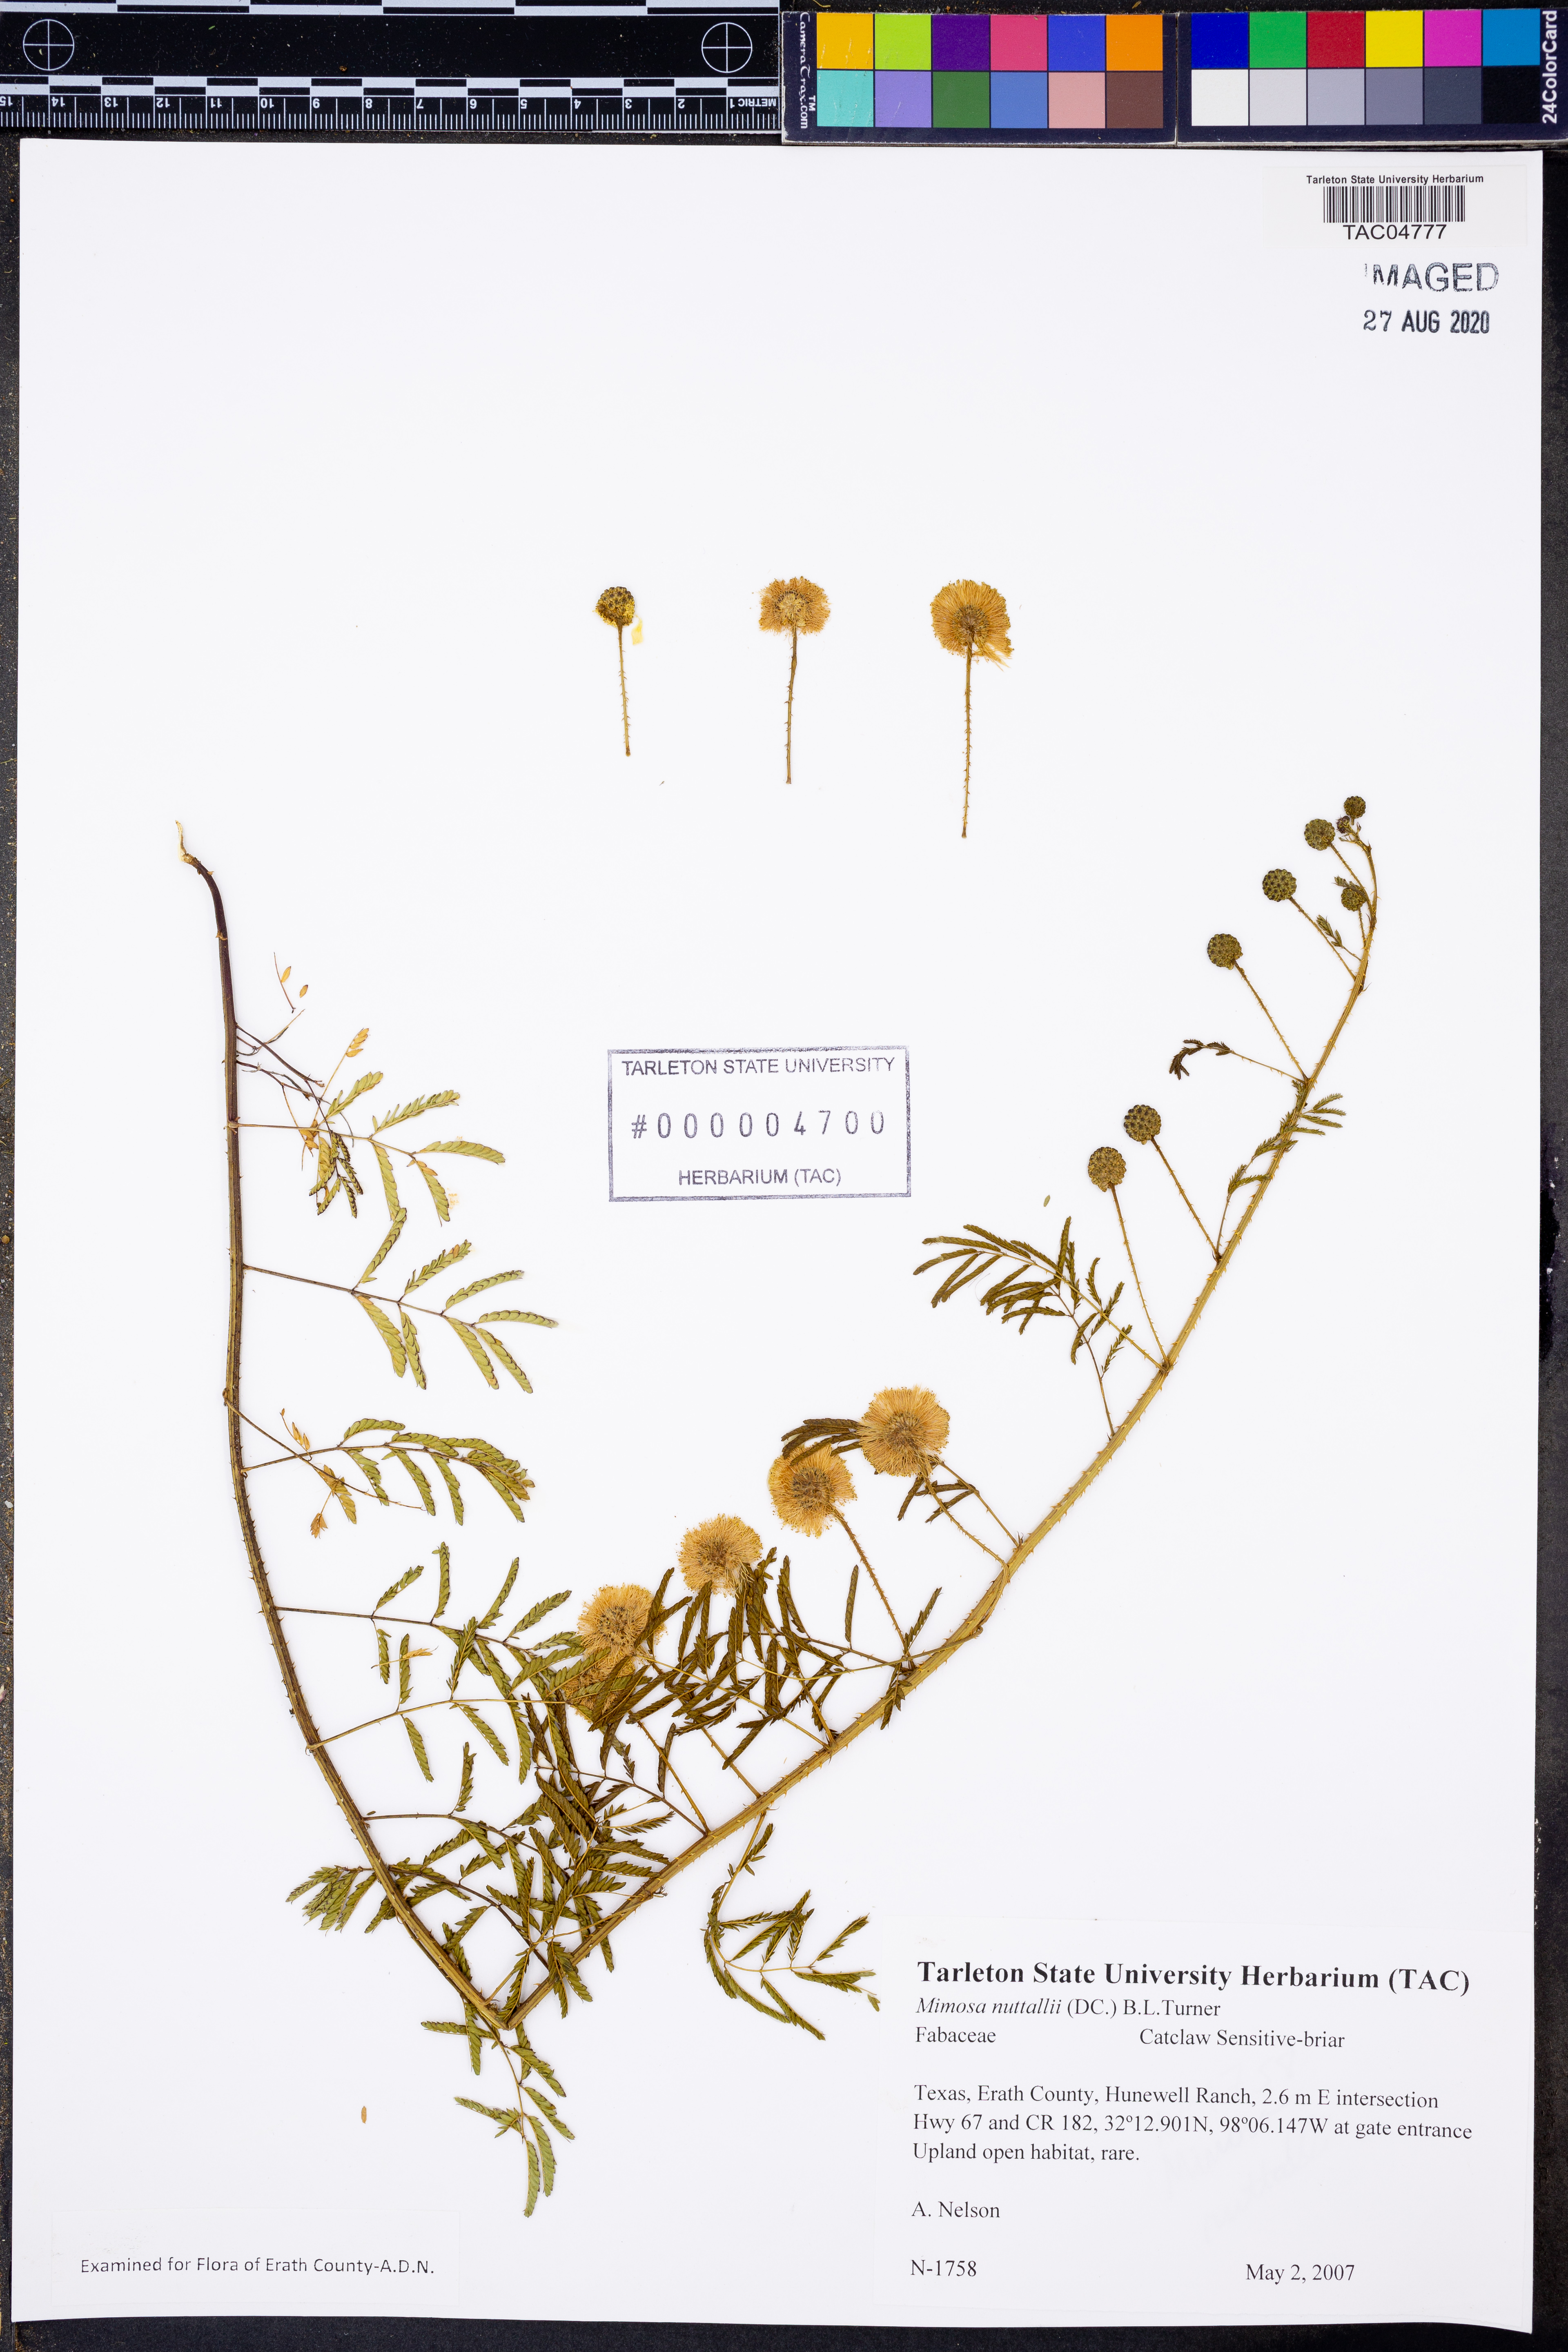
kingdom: Plantae
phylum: Tracheophyta
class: Magnoliopsida
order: Fabales
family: Fabaceae
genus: Mimosa
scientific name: Mimosa quadrivalvis
